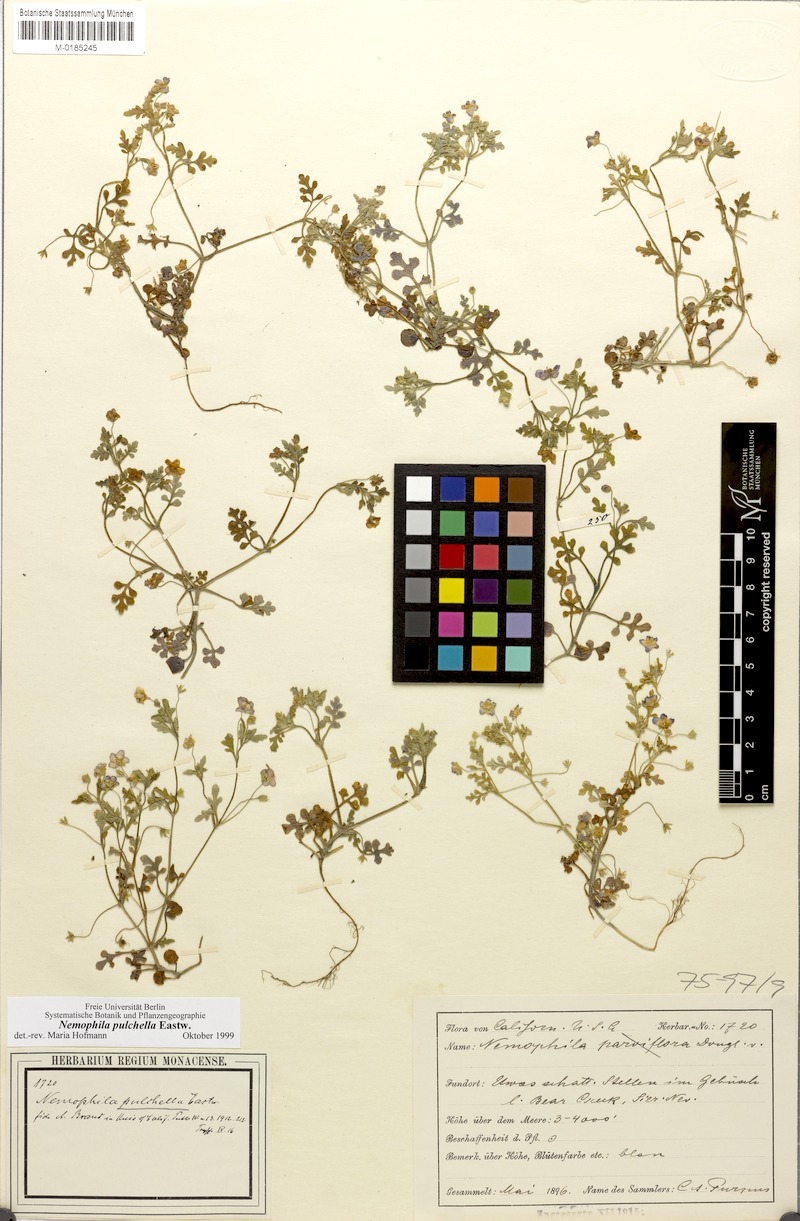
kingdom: Plantae
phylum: Tracheophyta
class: Magnoliopsida
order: Boraginales
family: Hydrophyllaceae
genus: Nemophila
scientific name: Nemophila pulchella
